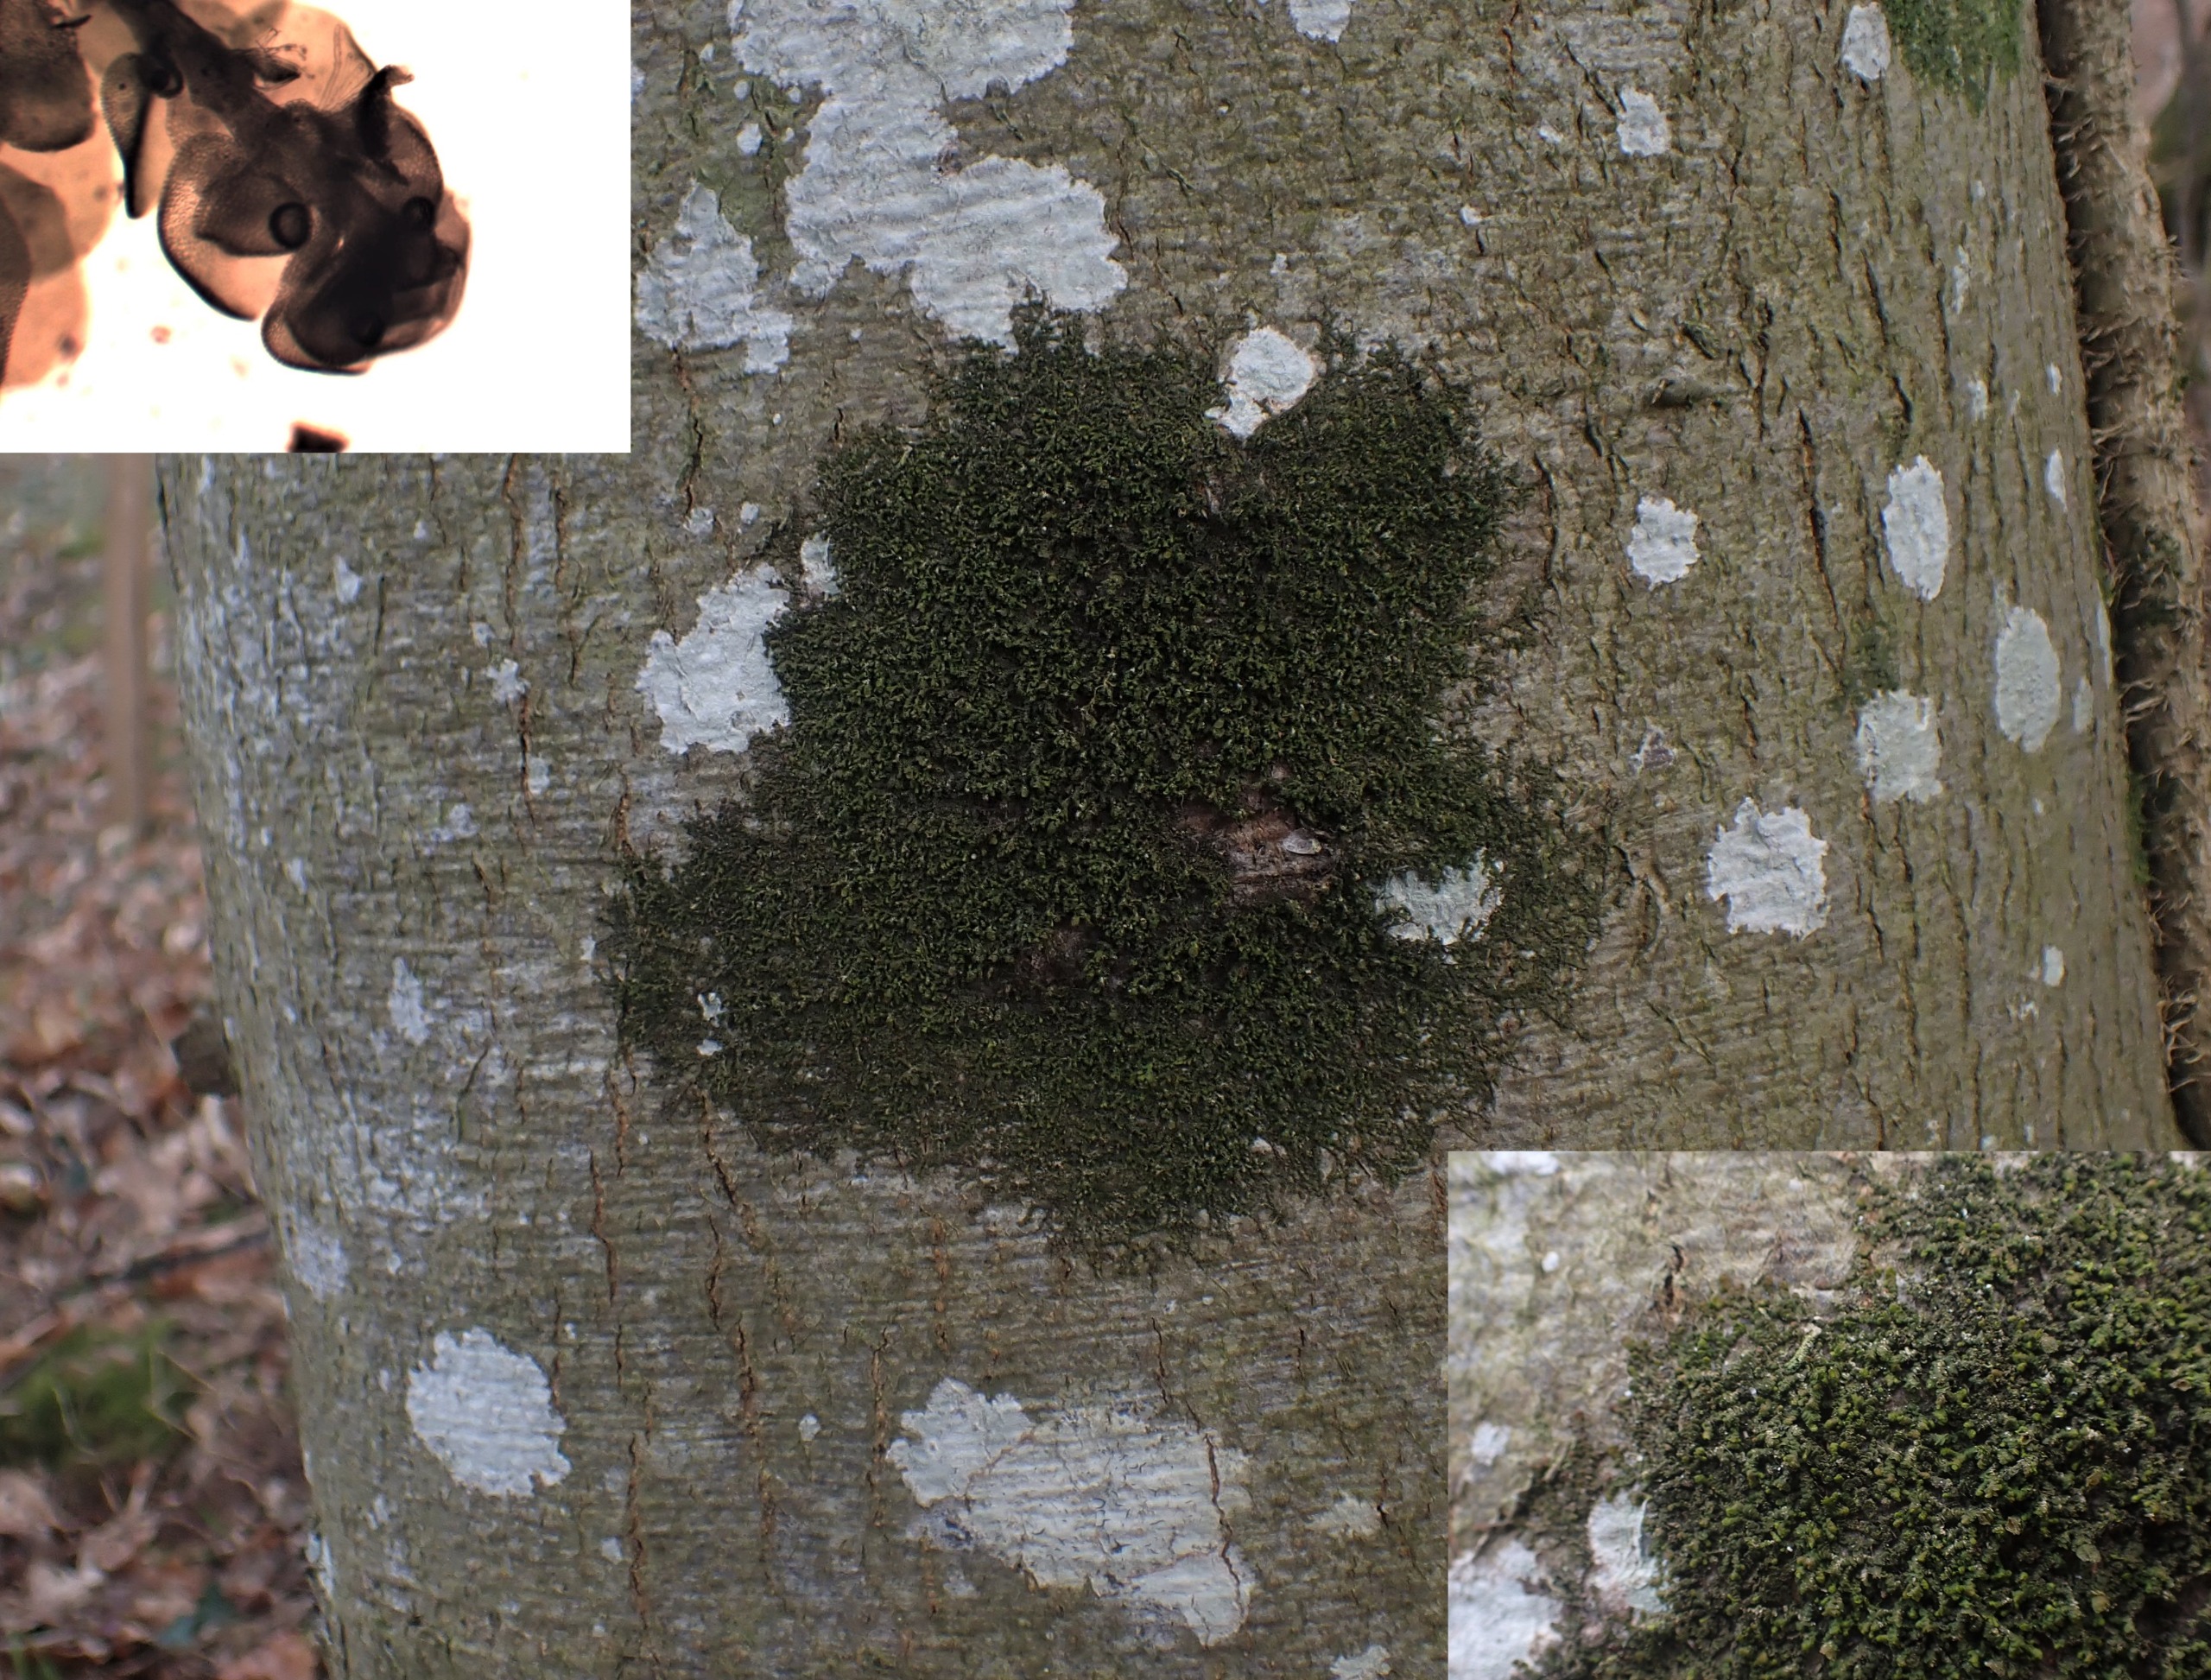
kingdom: Plantae
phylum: Marchantiophyta
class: Jungermanniopsida
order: Porellales
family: Frullaniaceae
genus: Frullania
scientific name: Frullania dilatata
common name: Mat bronzemos
